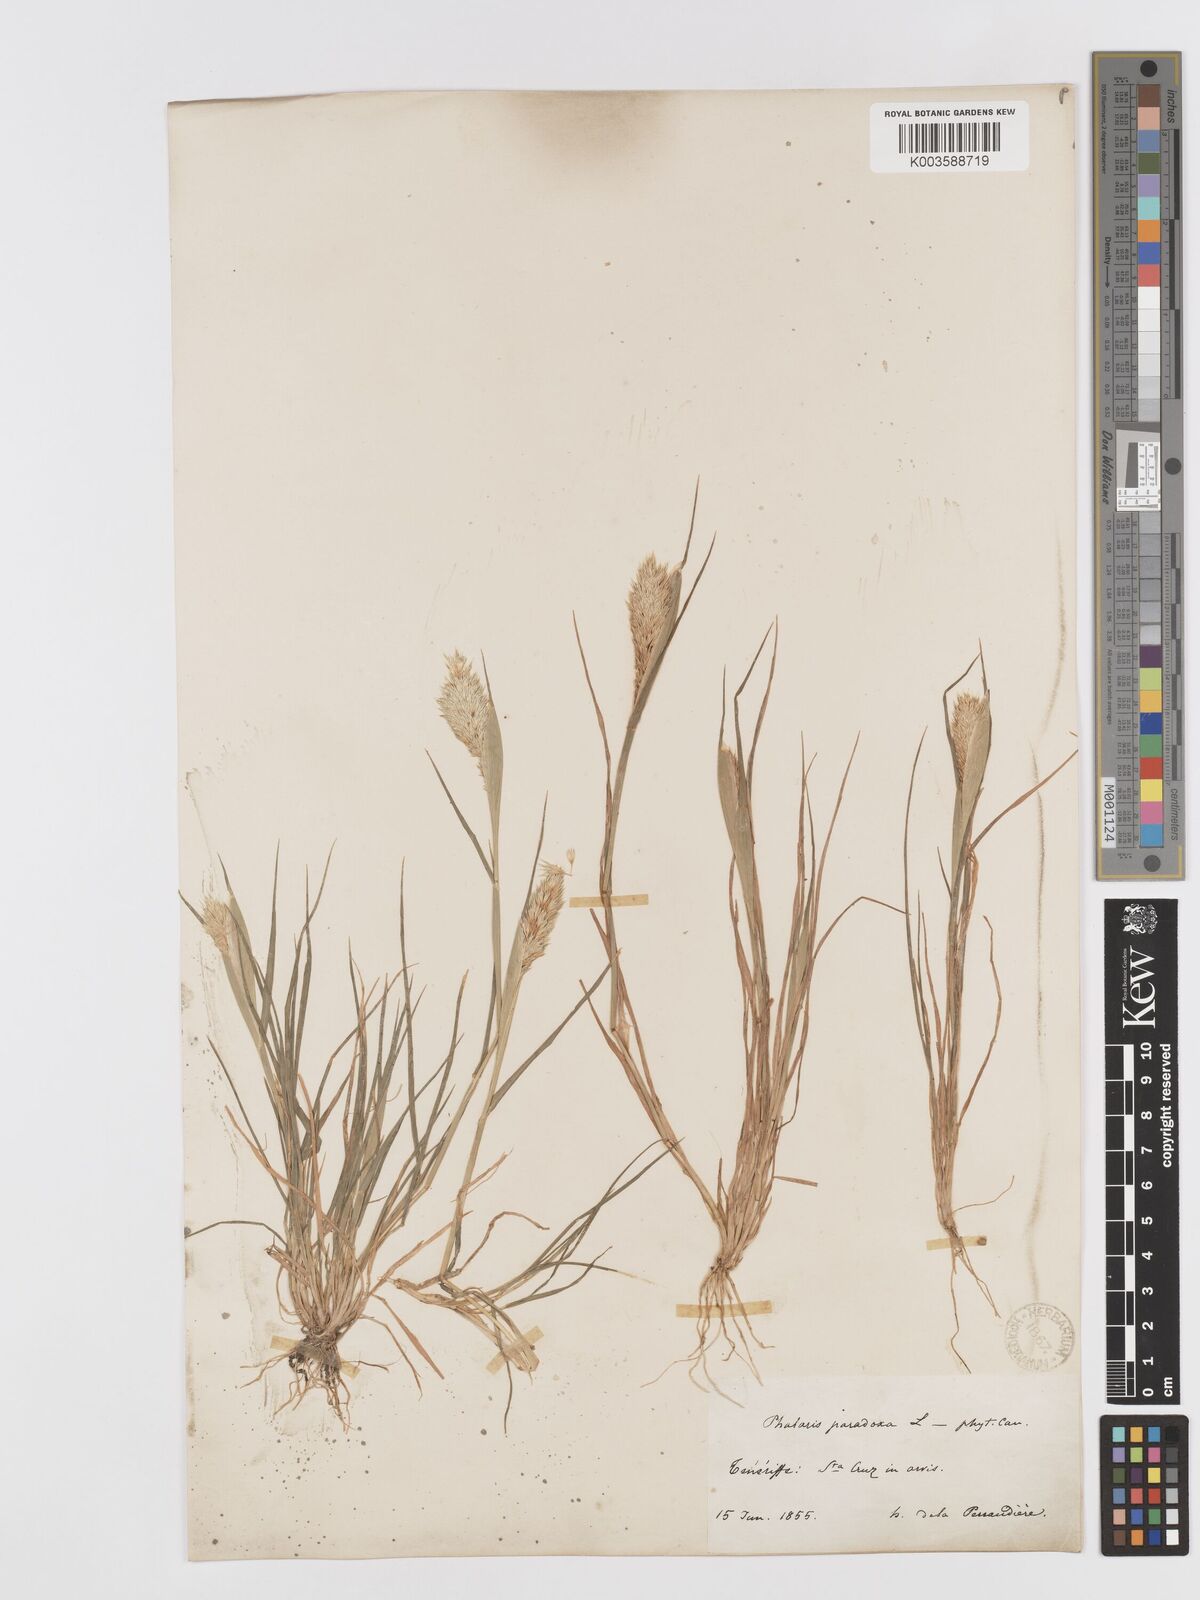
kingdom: Plantae
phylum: Tracheophyta
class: Liliopsida
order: Poales
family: Poaceae
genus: Phalaris
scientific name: Phalaris paradoxa
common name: Awned canary-grass
